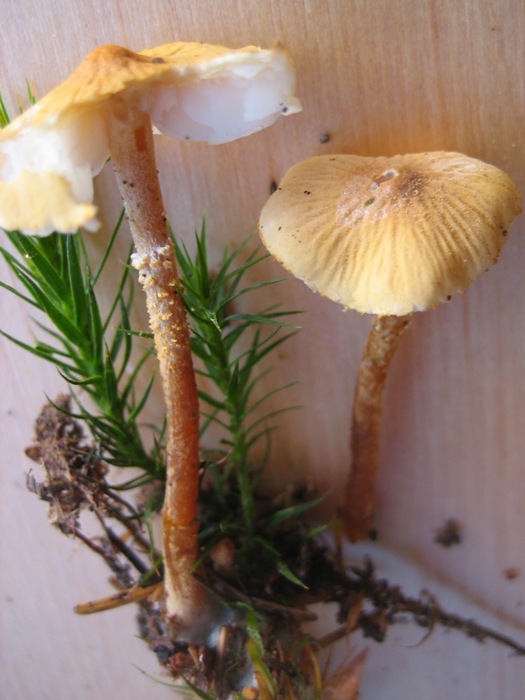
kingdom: Fungi
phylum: Basidiomycota
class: Agaricomycetes
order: Agaricales
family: Tricholomataceae
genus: Cystoderma
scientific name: Cystoderma amianthinum
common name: okkergul grynhat
